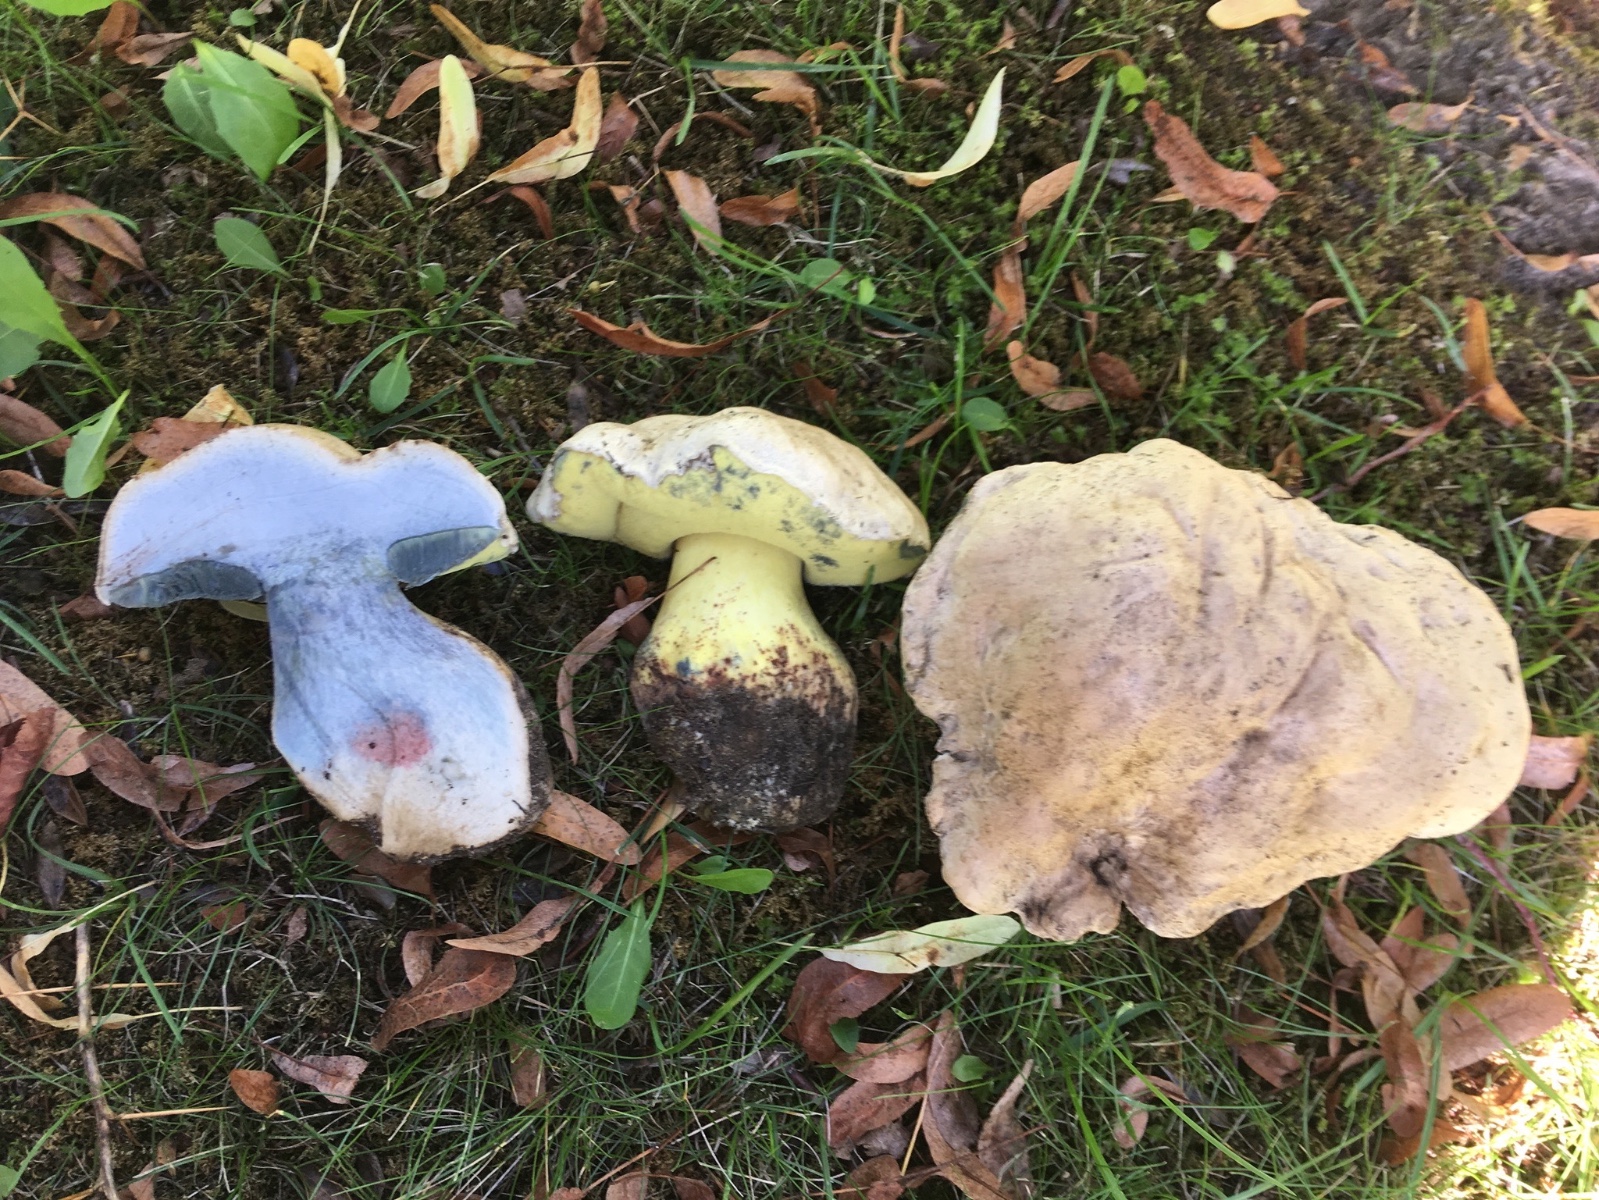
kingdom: Fungi
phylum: Basidiomycota
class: Agaricomycetes
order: Boletales
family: Boletaceae
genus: Caloboletus
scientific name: Caloboletus radicans
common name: rod-rørhat
